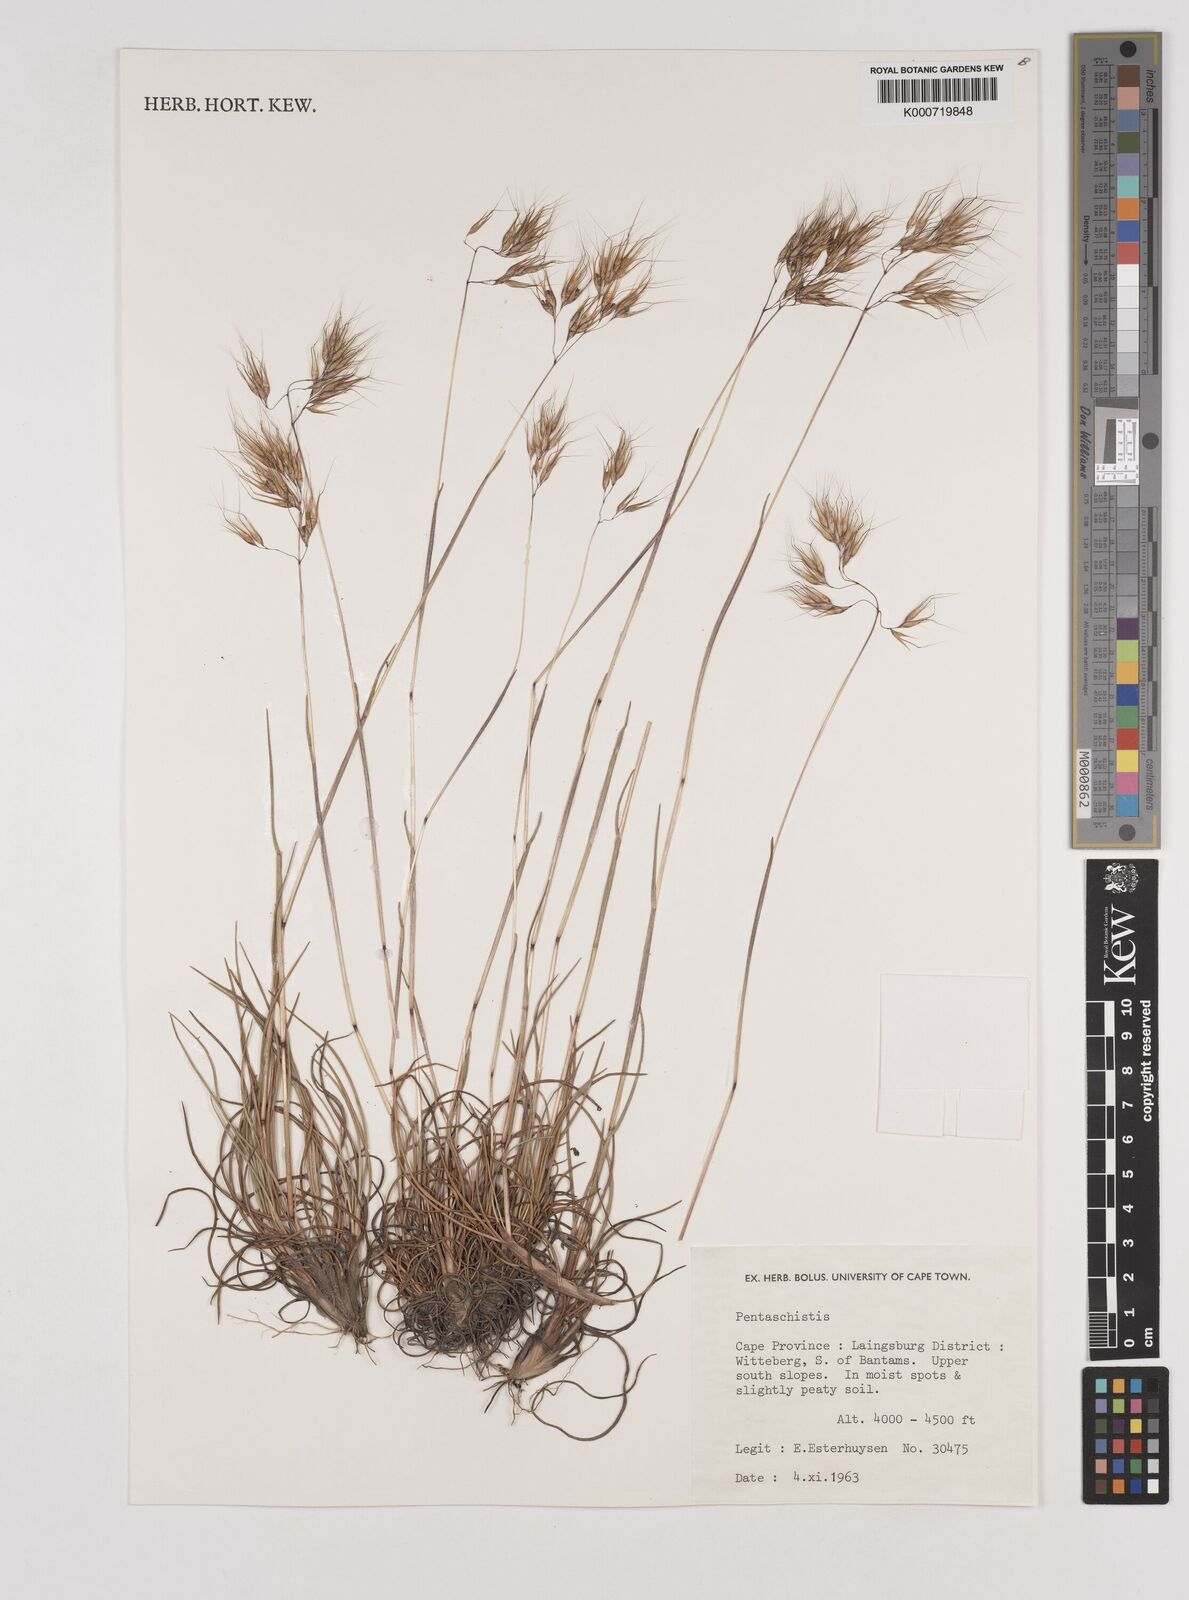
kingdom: Plantae
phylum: Tracheophyta
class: Liliopsida
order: Poales
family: Poaceae
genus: Pentaschistis
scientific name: Pentaschistis
